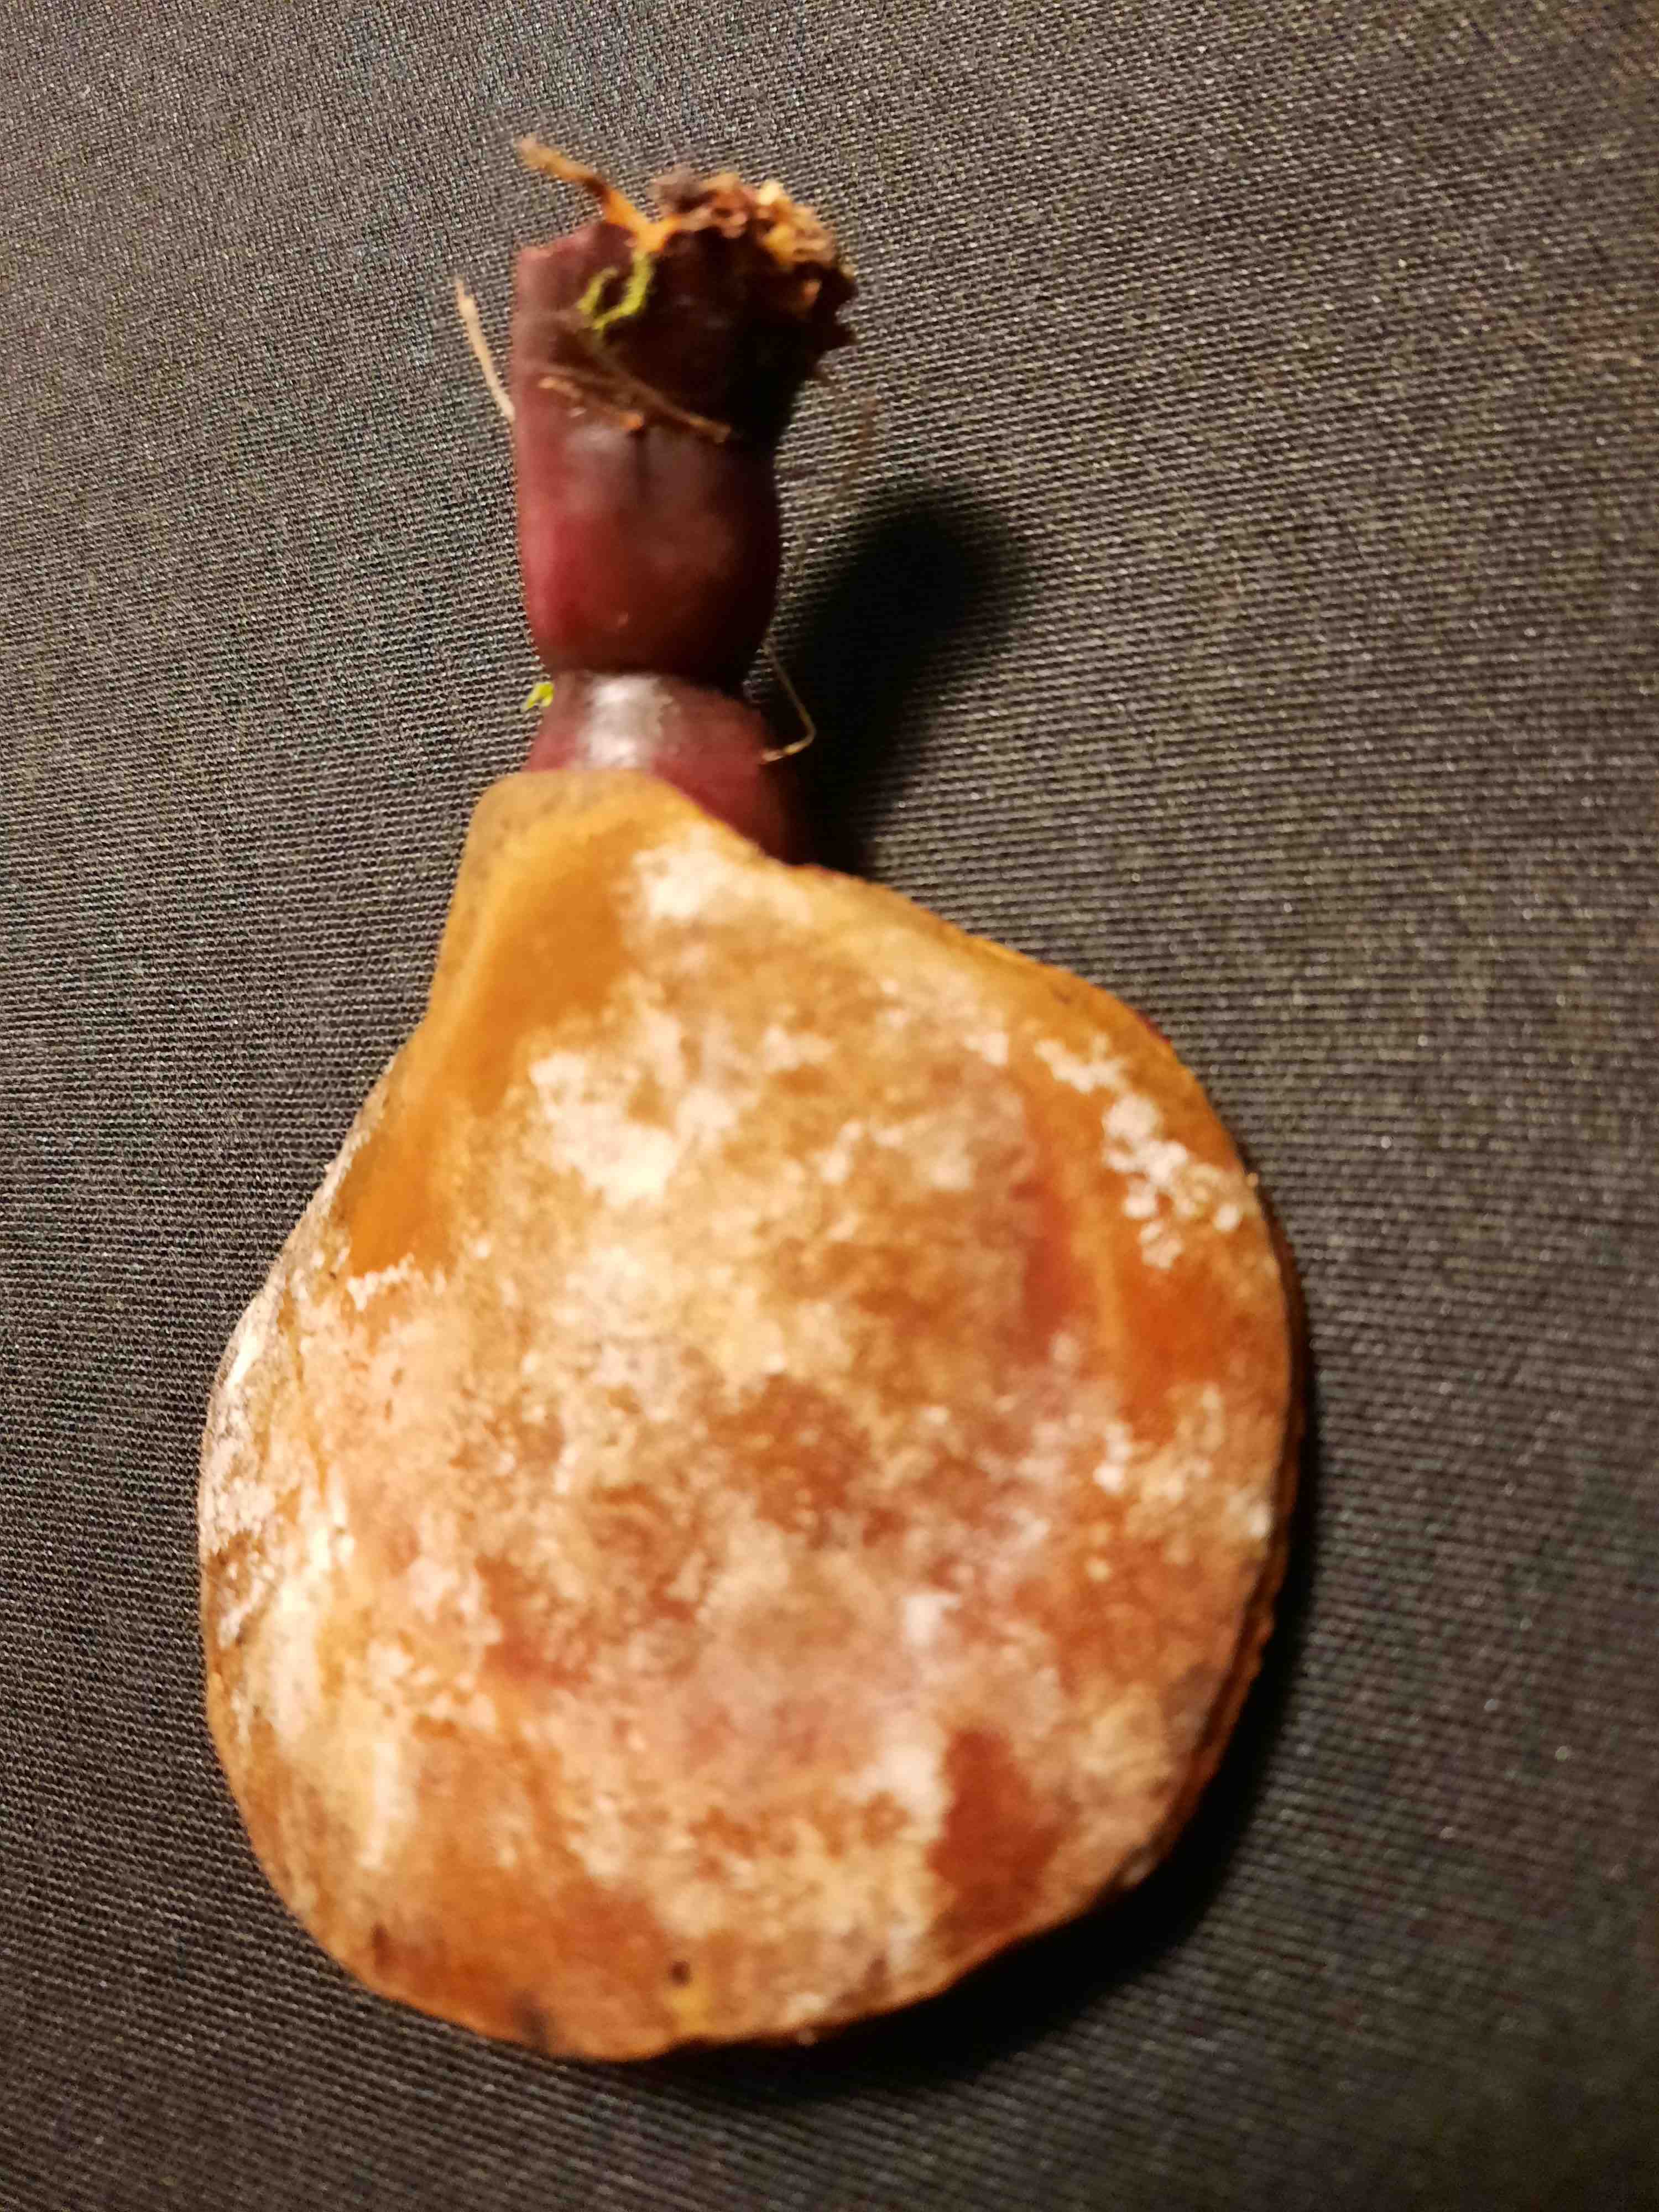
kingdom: Fungi
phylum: Basidiomycota
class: Agaricomycetes
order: Polyporales
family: Polyporaceae
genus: Ganoderma
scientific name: Ganoderma lucidum
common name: skinnende lakporesvamp
